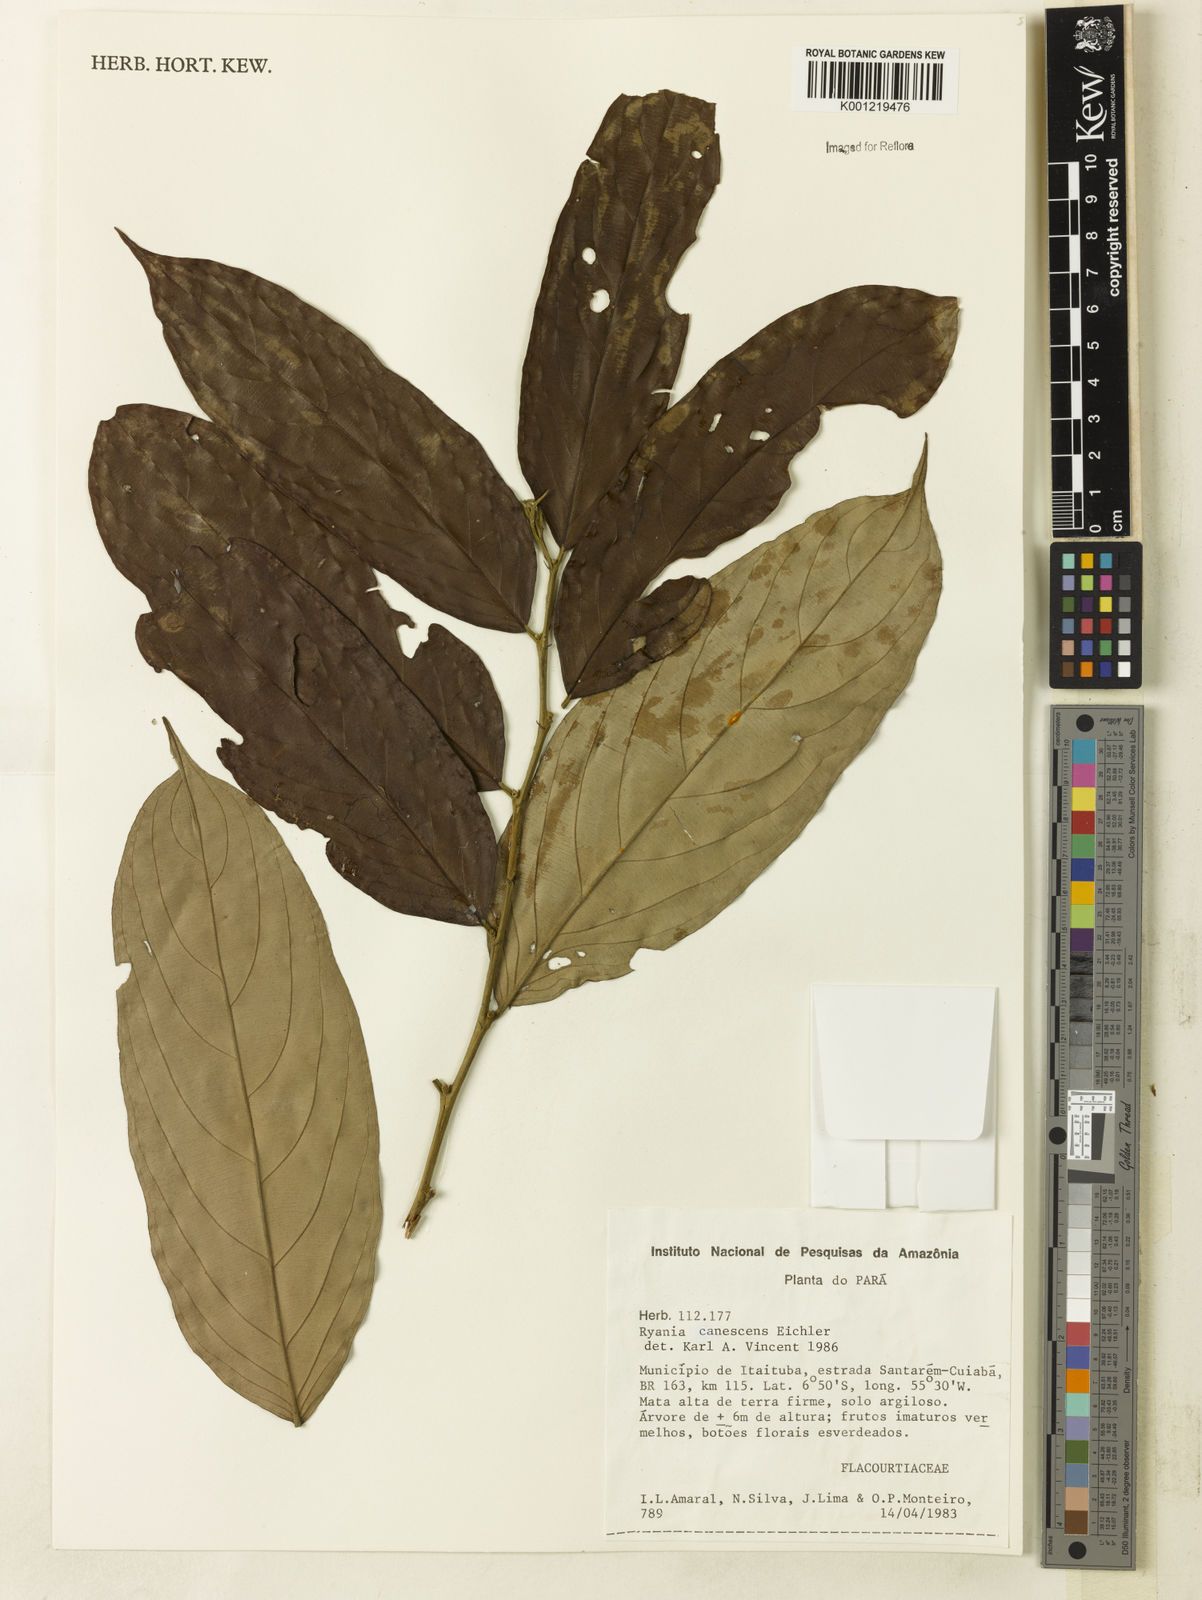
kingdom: Plantae
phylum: Tracheophyta
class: Magnoliopsida
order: Malpighiales
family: Salicaceae
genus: Ryania
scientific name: Ryania canescens
